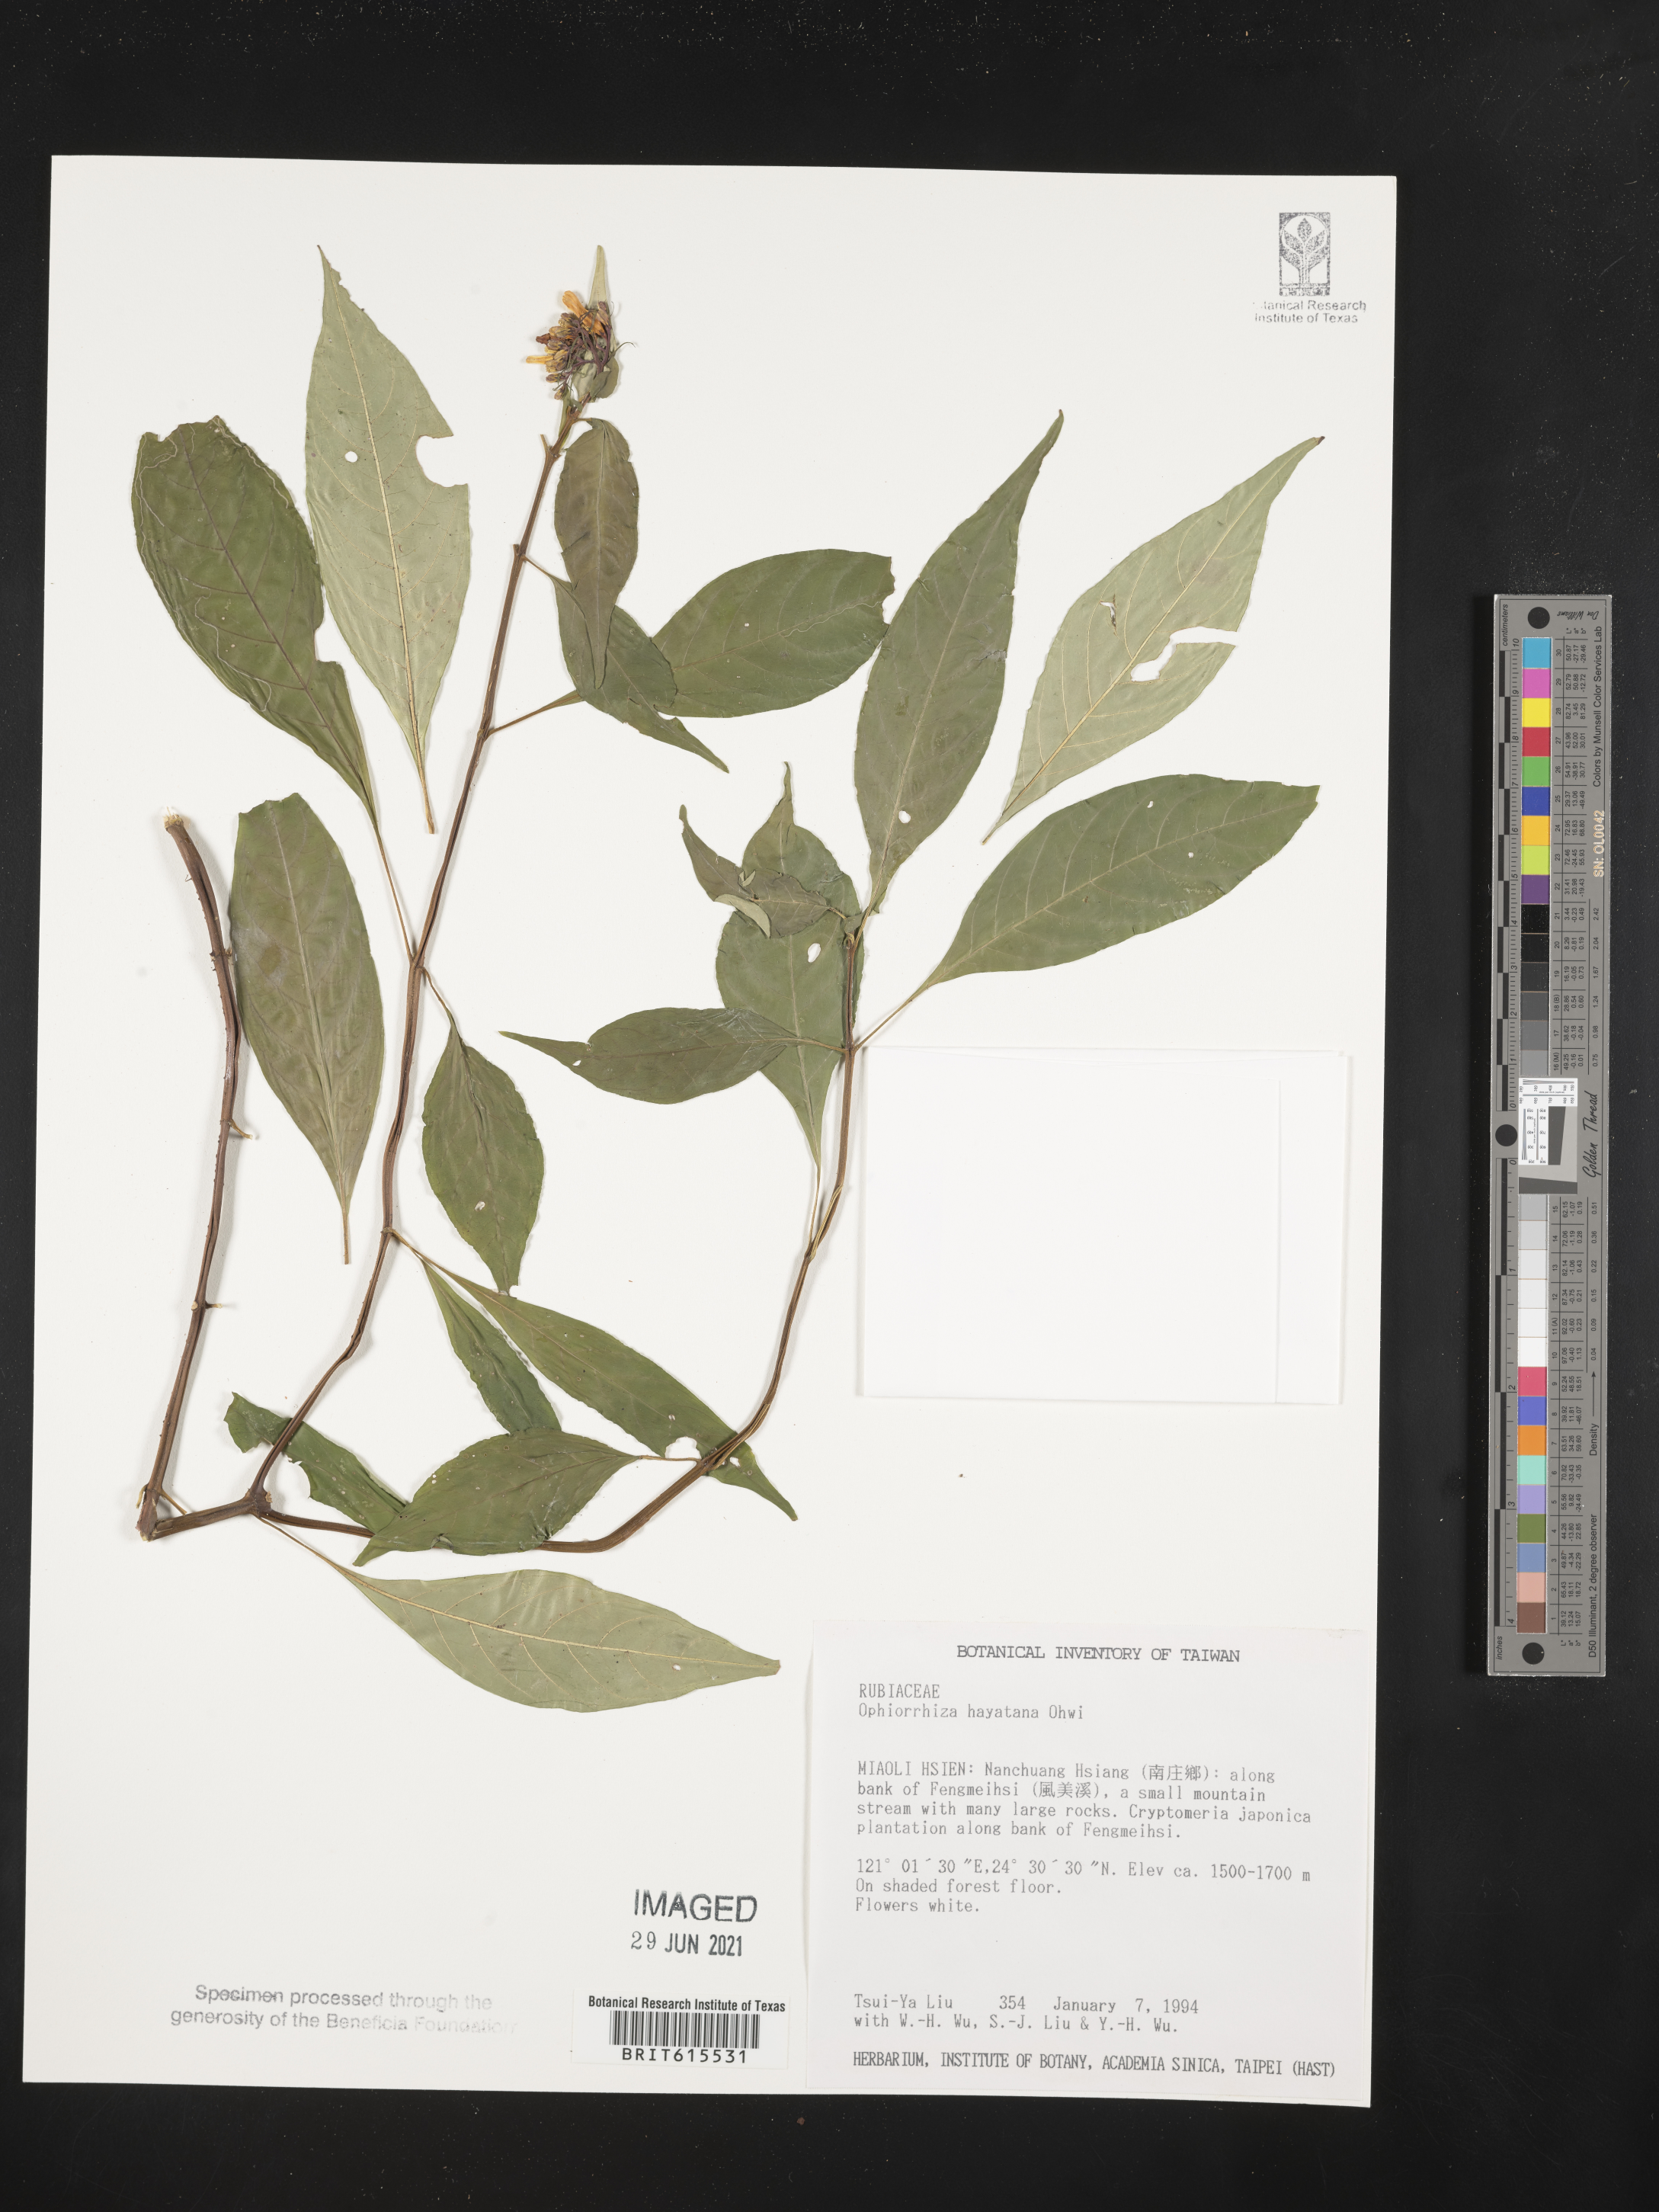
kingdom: Plantae
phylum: Tracheophyta
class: Magnoliopsida
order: Gentianales
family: Rubiaceae
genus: Ophiorrhiza
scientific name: Ophiorrhiza hayatana
